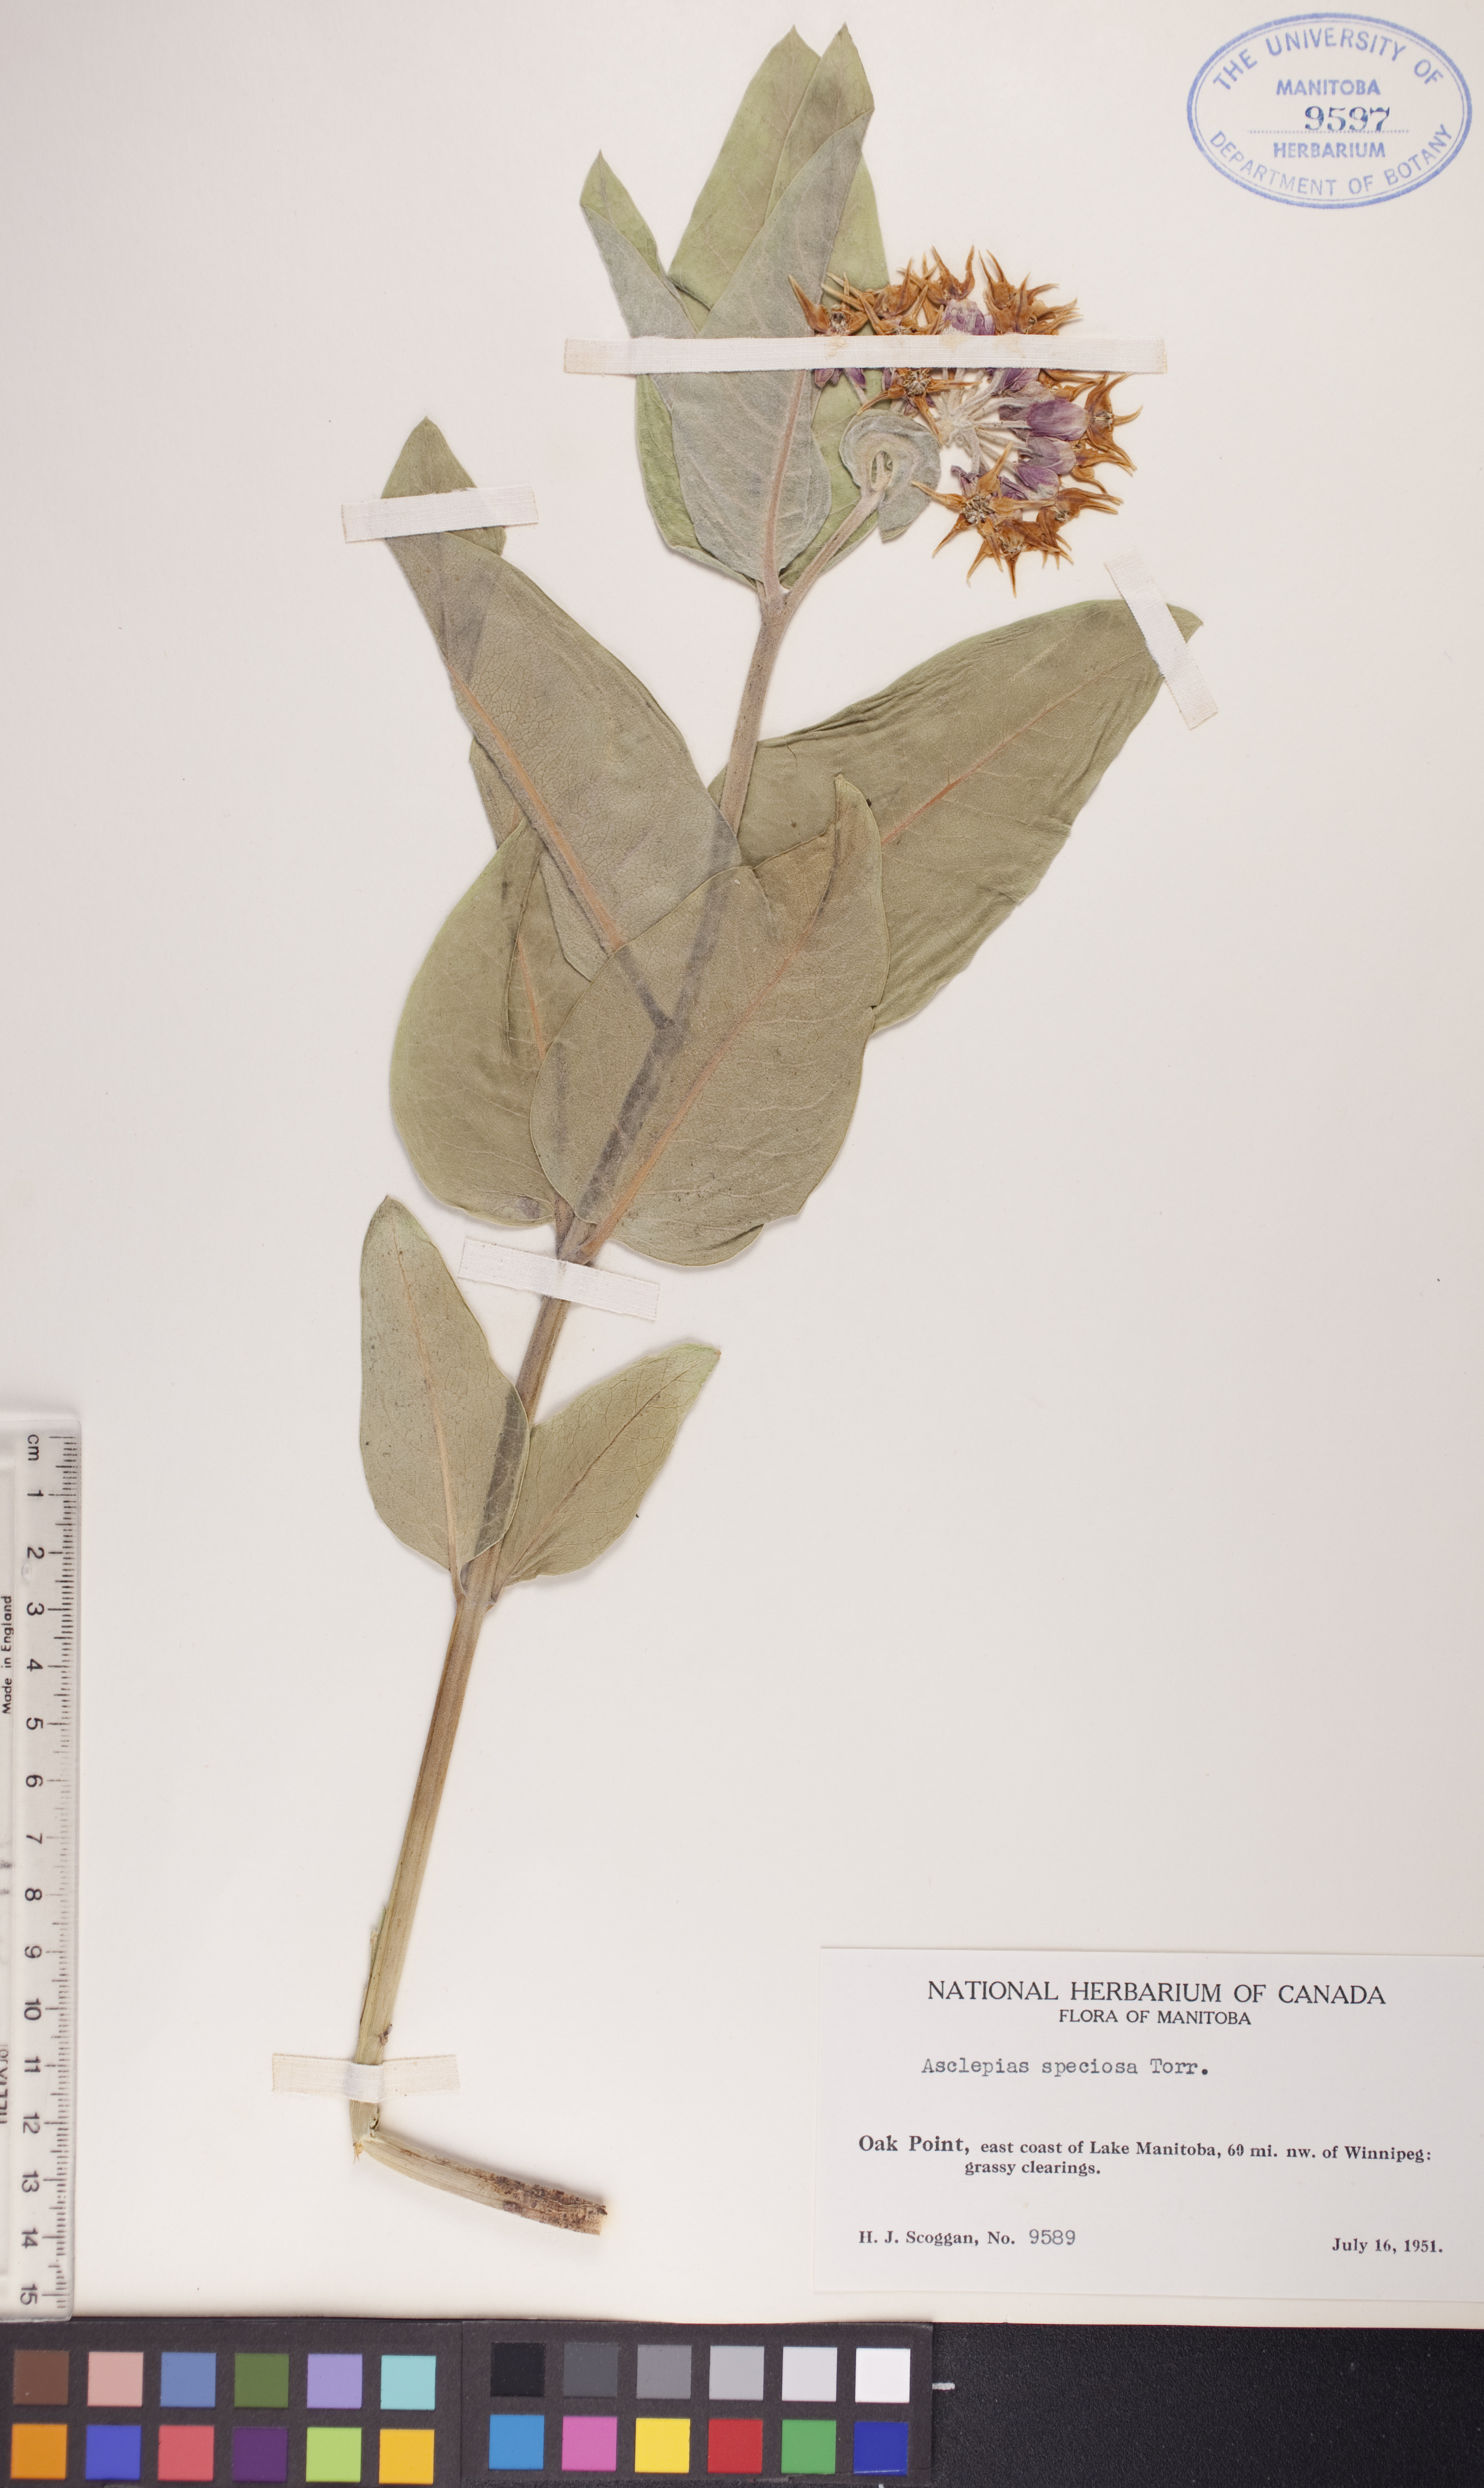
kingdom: Plantae
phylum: Tracheophyta
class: Magnoliopsida
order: Gentianales
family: Apocynaceae
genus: Asclepias
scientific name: Asclepias speciosa
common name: Showy milkweed
